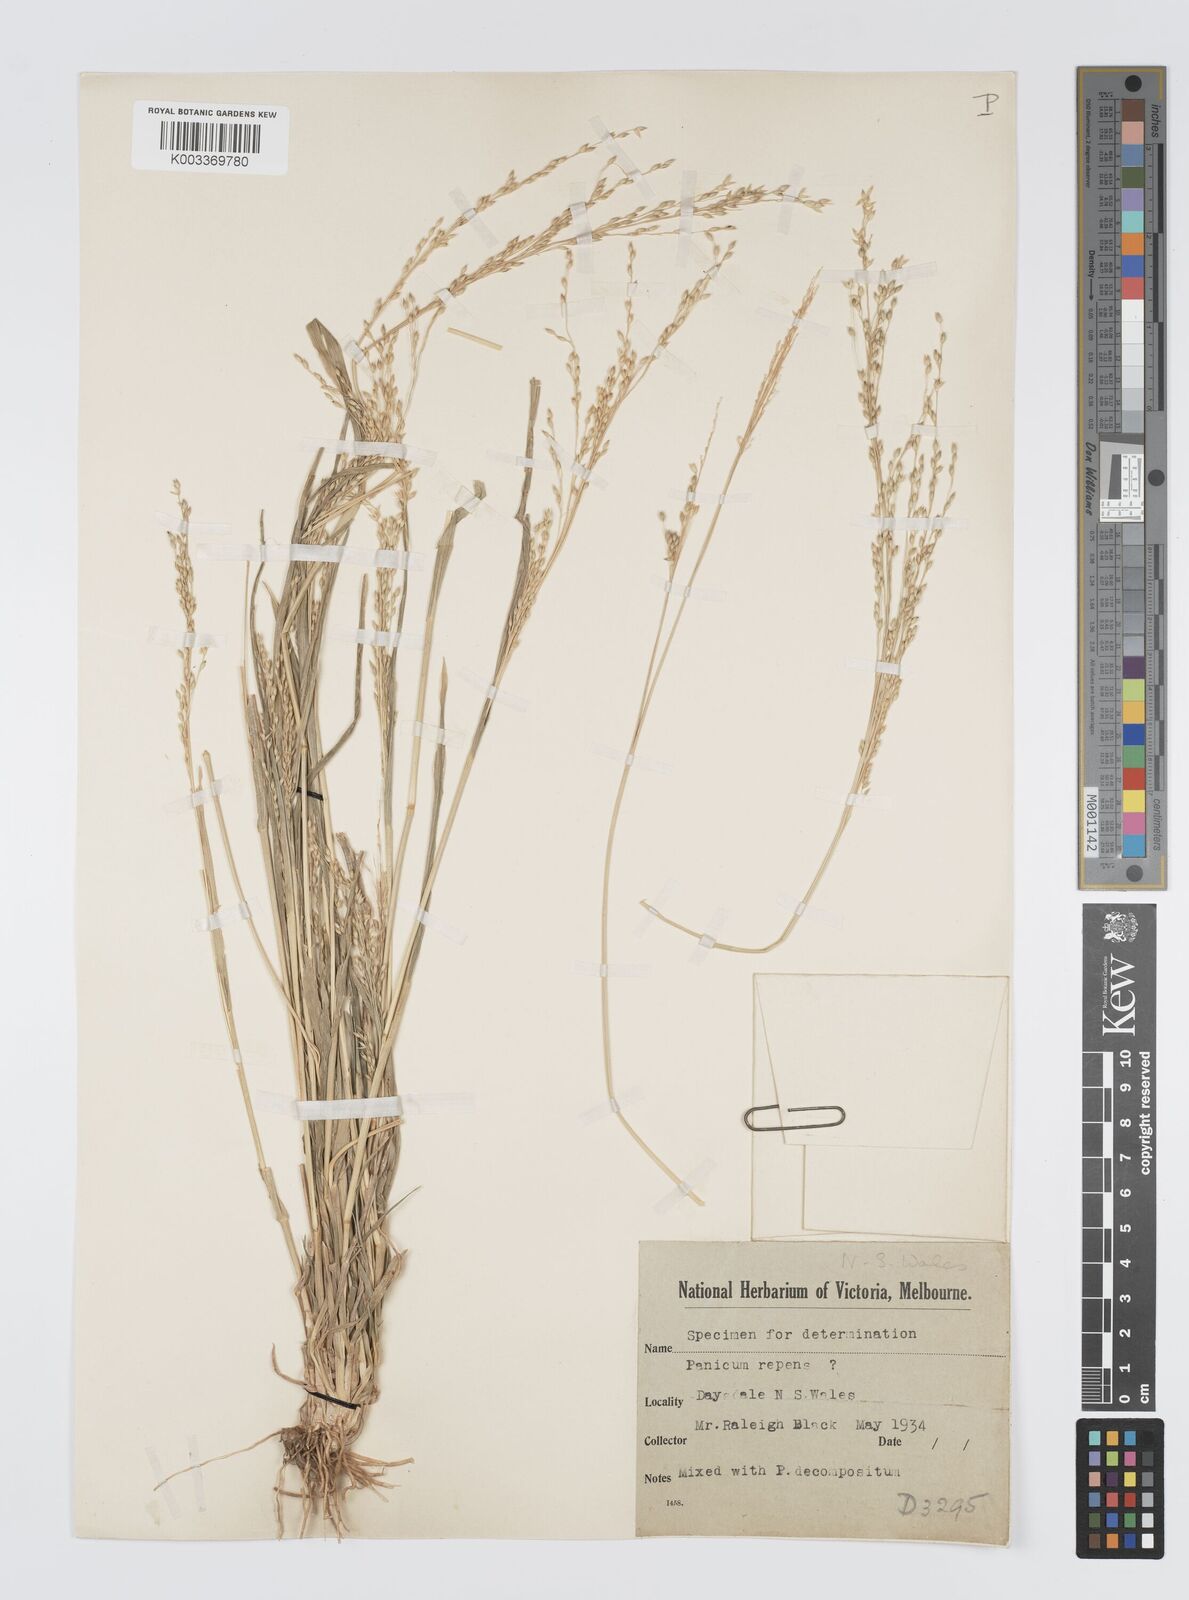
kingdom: Plantae
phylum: Tracheophyta
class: Liliopsida
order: Poales
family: Poaceae
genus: Panicum
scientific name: Panicum laevinode
